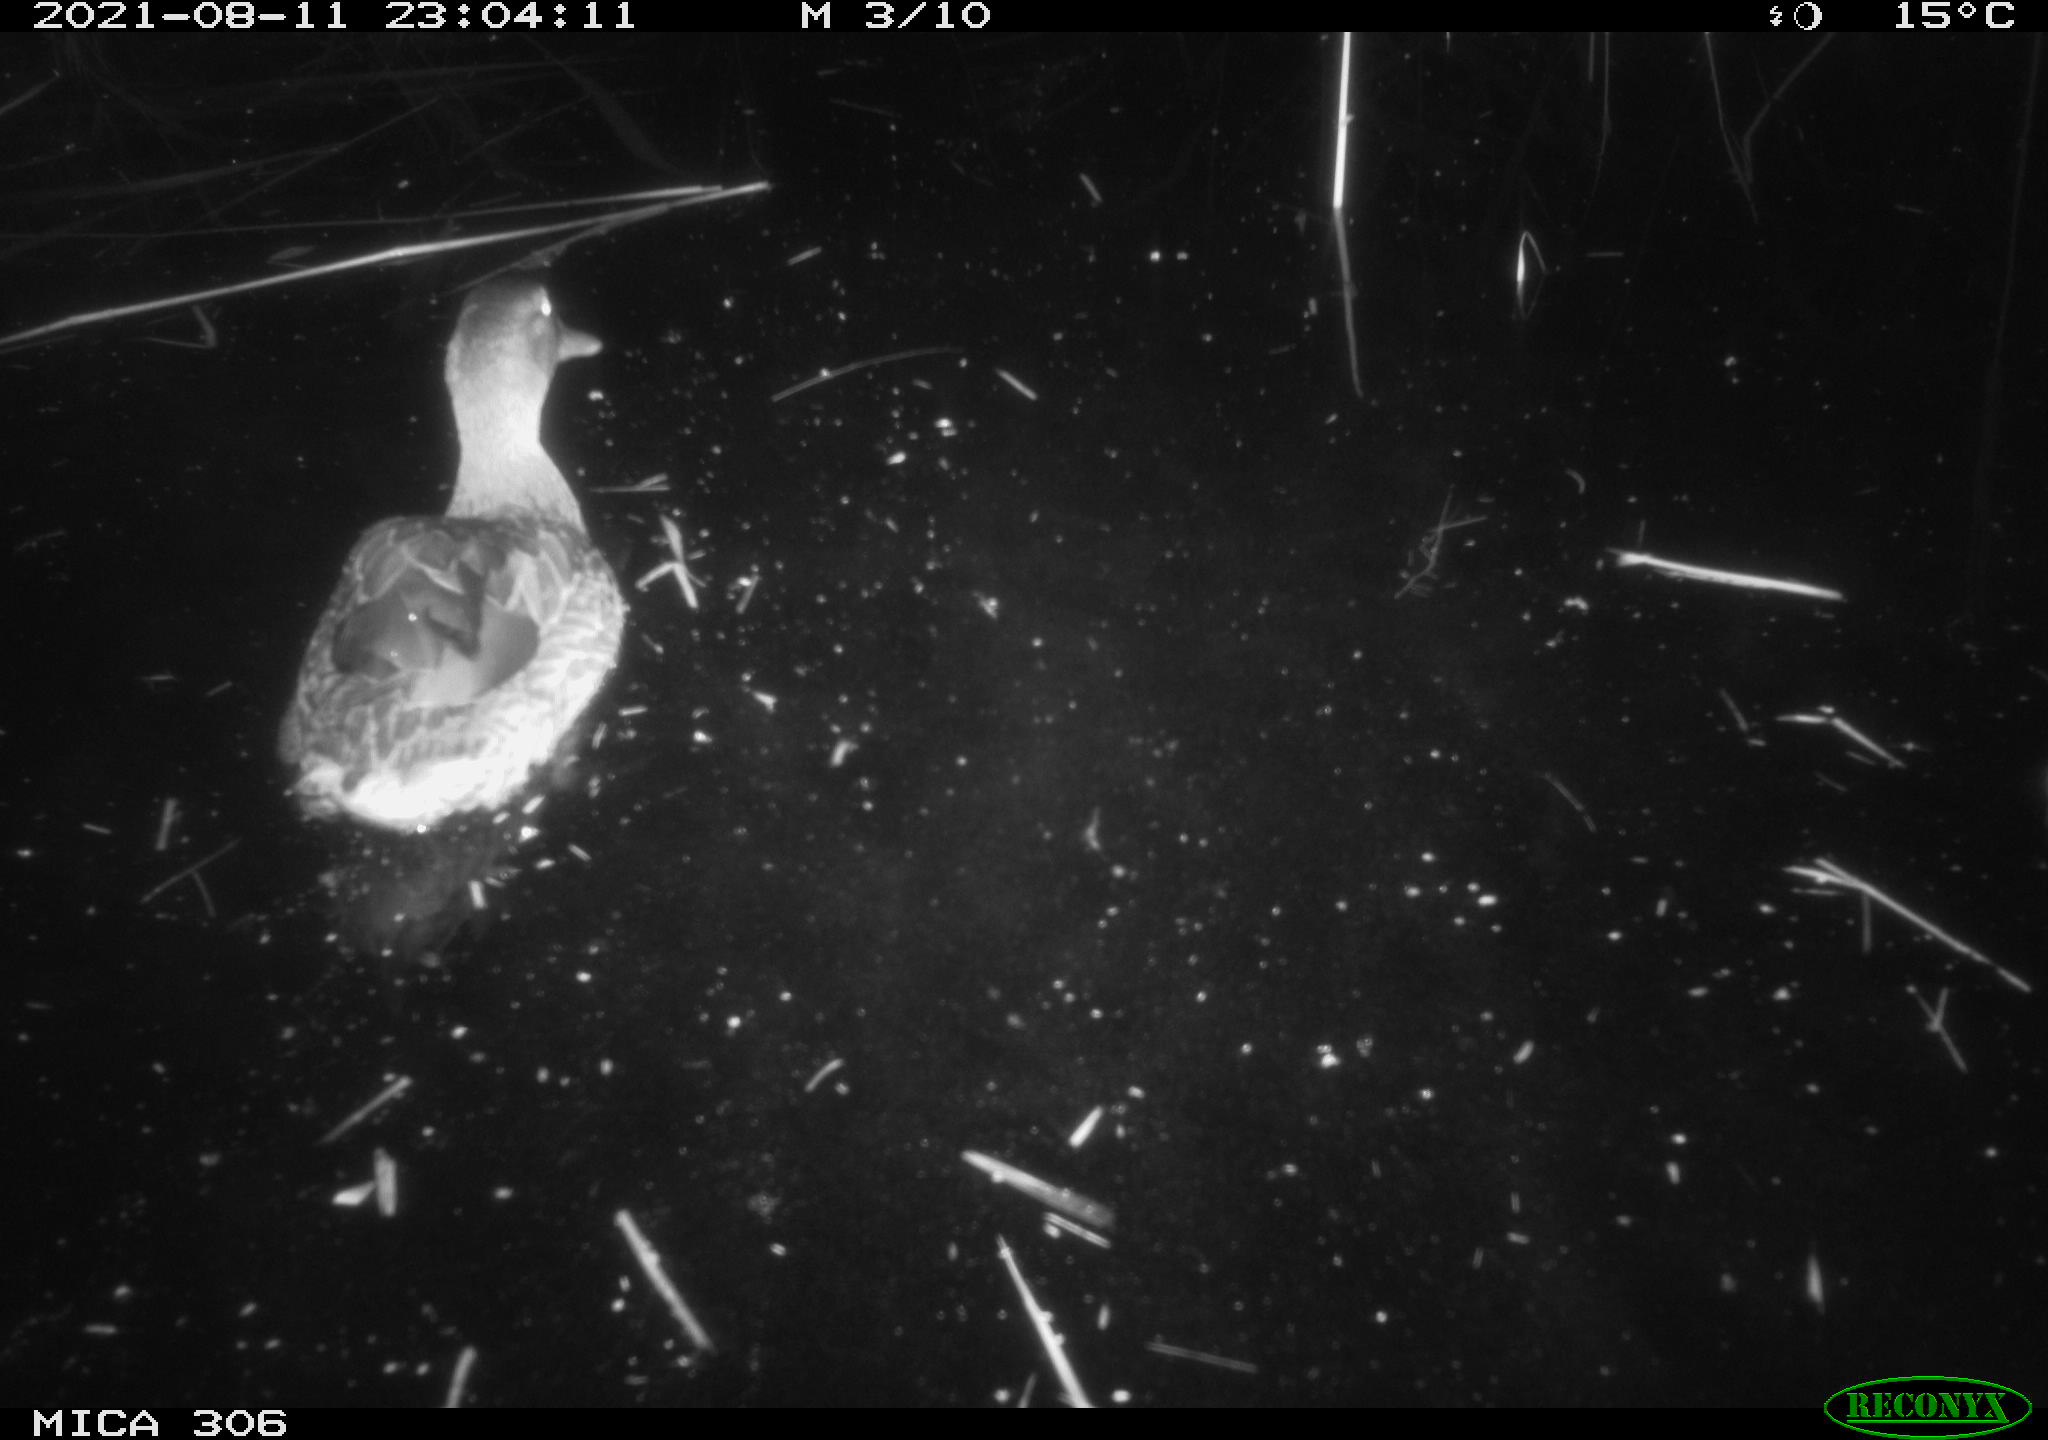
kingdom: Animalia
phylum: Chordata
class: Aves
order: Anseriformes
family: Anatidae
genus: Anas
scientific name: Anas platyrhynchos
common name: Mallard
